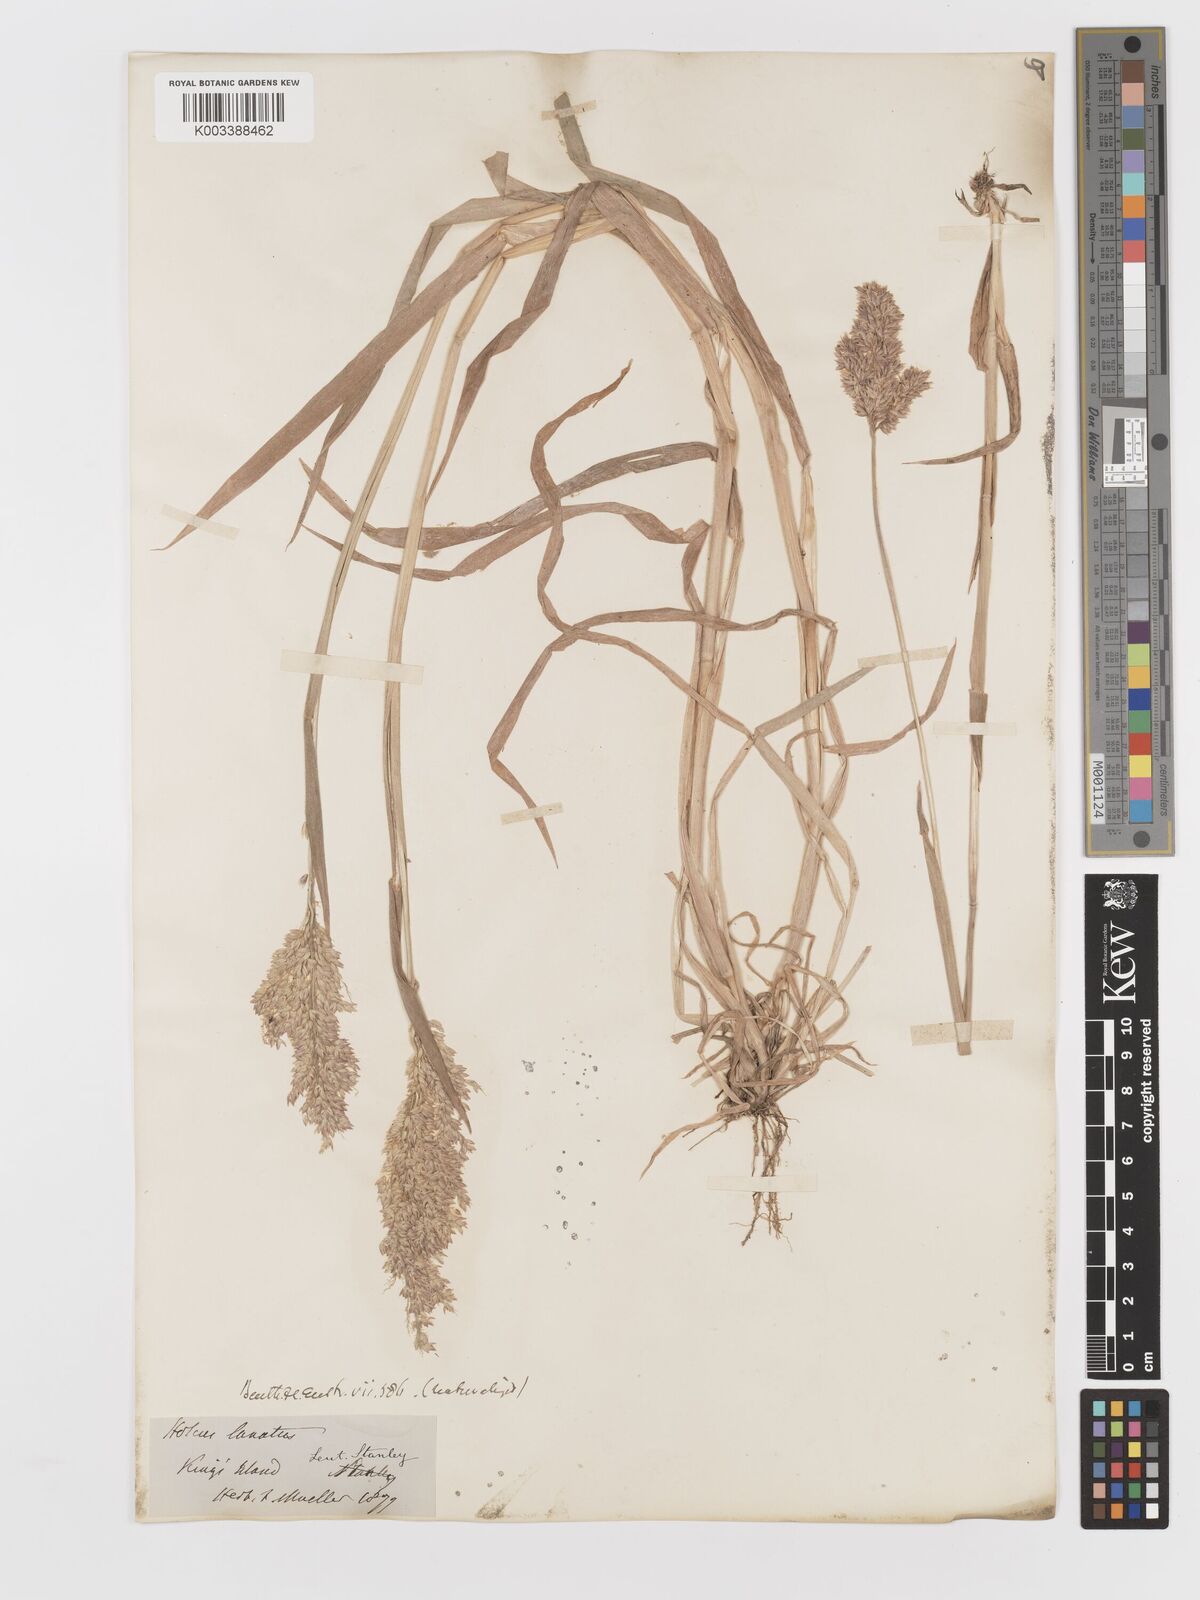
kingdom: Plantae
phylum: Tracheophyta
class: Liliopsida
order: Poales
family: Poaceae
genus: Holcus
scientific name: Holcus lanatus
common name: Yorkshire-fog
